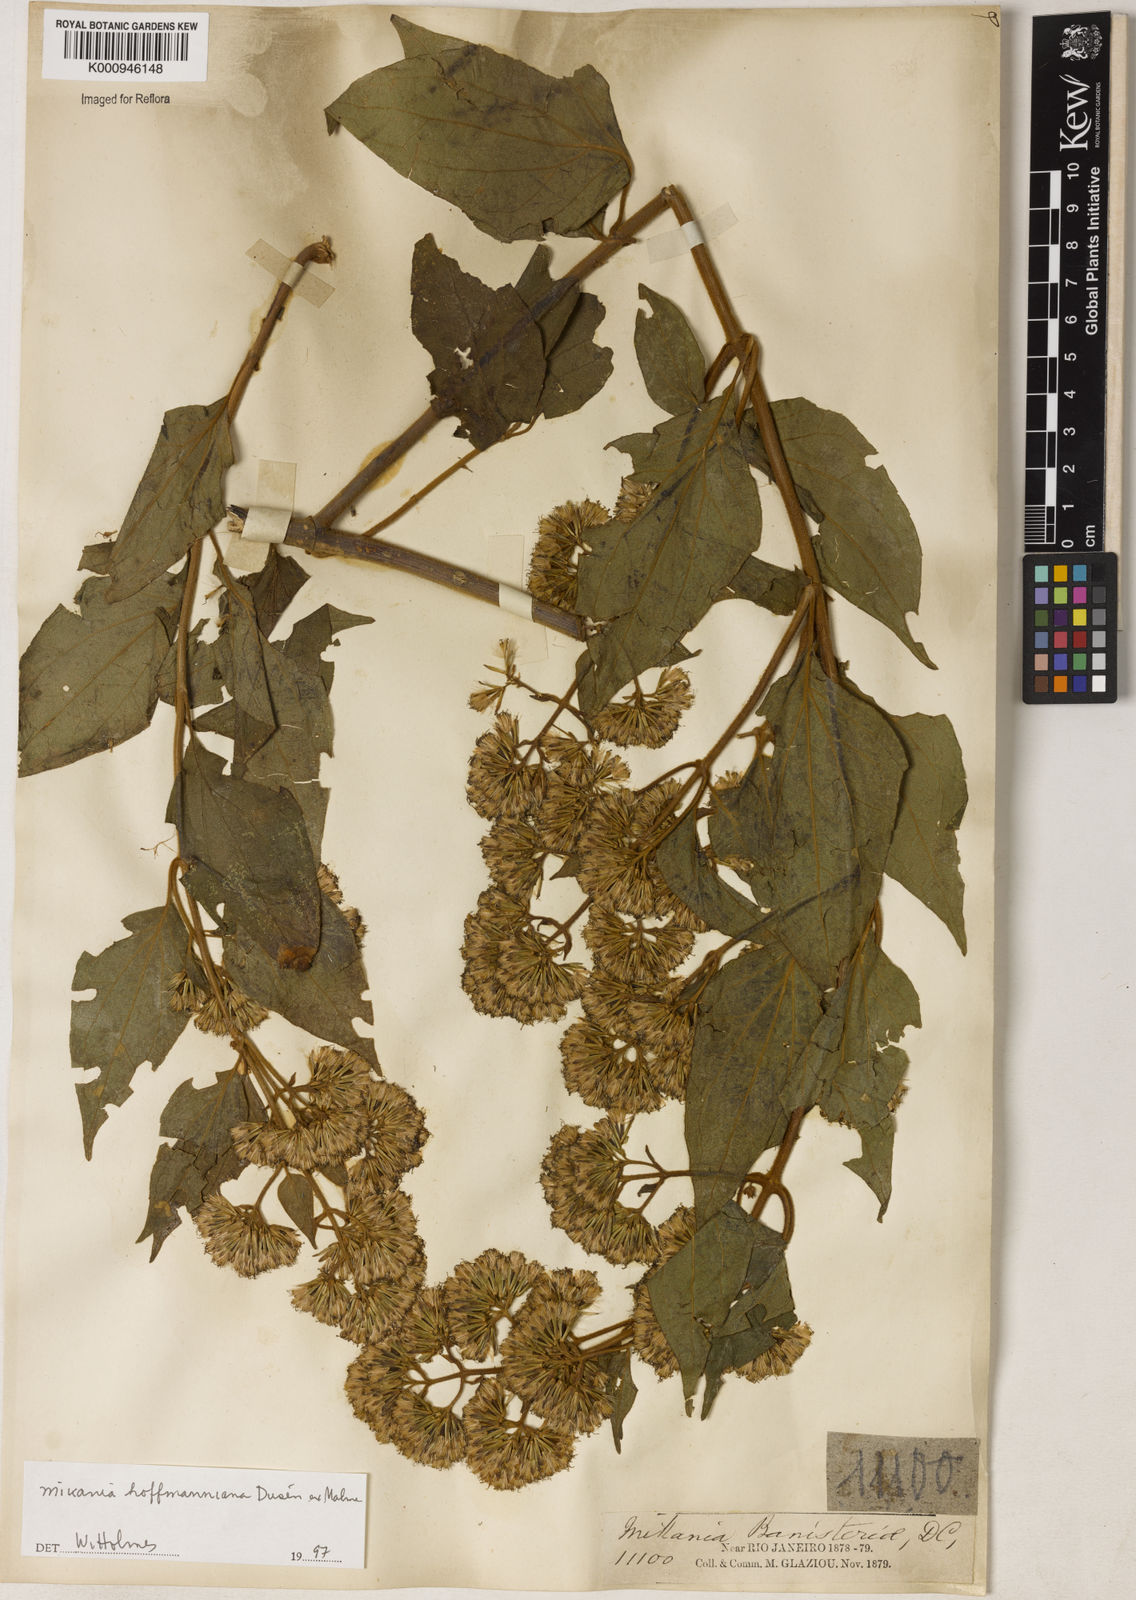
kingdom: Plantae
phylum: Tracheophyta
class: Magnoliopsida
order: Asterales
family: Asteraceae
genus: Mikania
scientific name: Mikania
